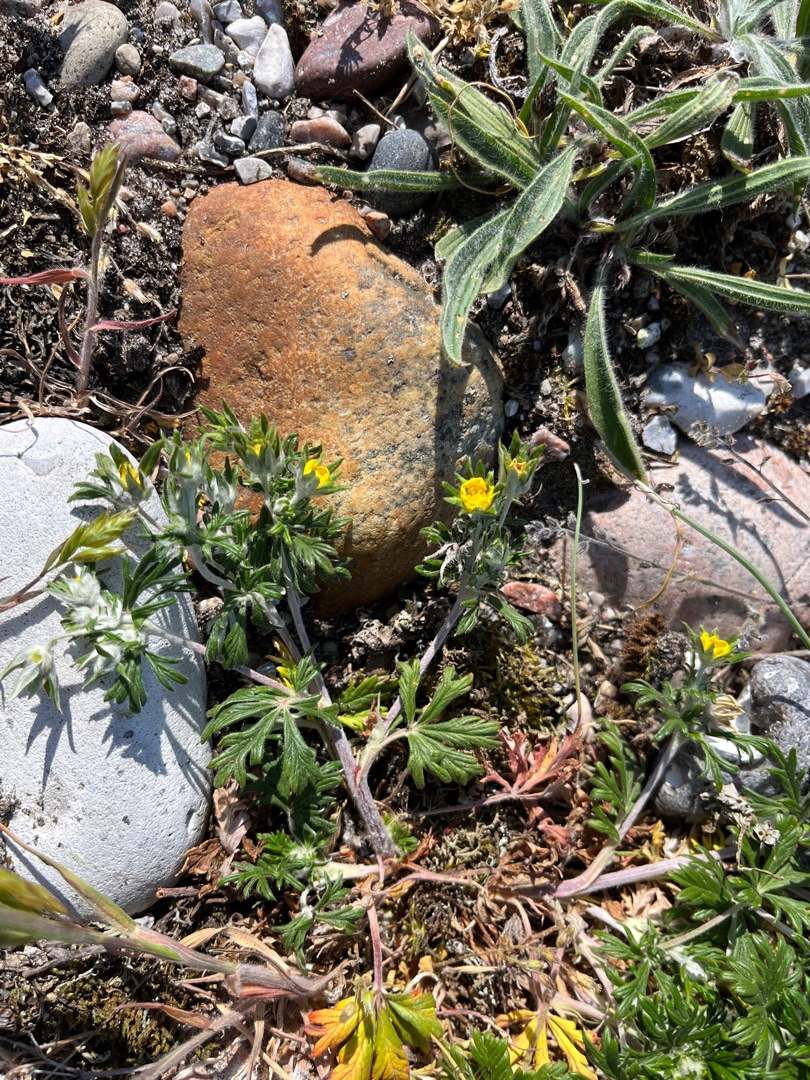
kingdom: Plantae
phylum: Tracheophyta
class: Magnoliopsida
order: Rosales
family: Rosaceae
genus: Potentilla
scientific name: Potentilla argentea
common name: Sølv-potentil
